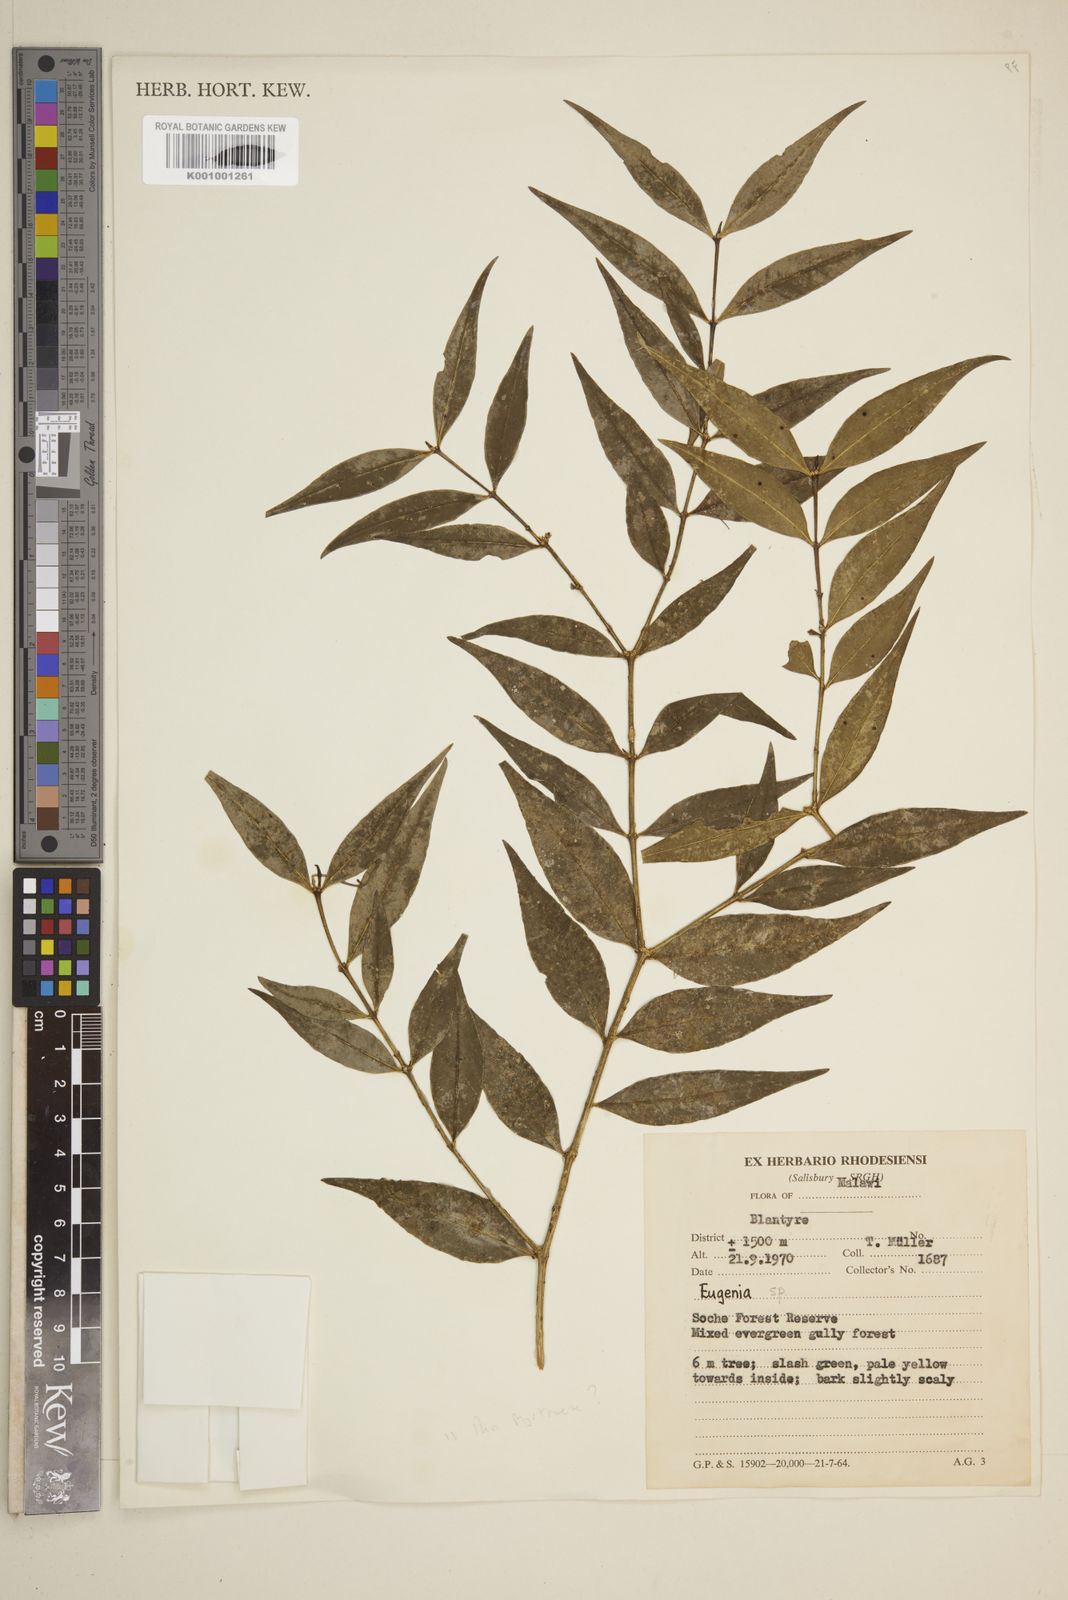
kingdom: Plantae
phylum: Tracheophyta
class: Magnoliopsida
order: Myrtales
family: Myrtaceae
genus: Eugenia
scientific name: Eugenia
